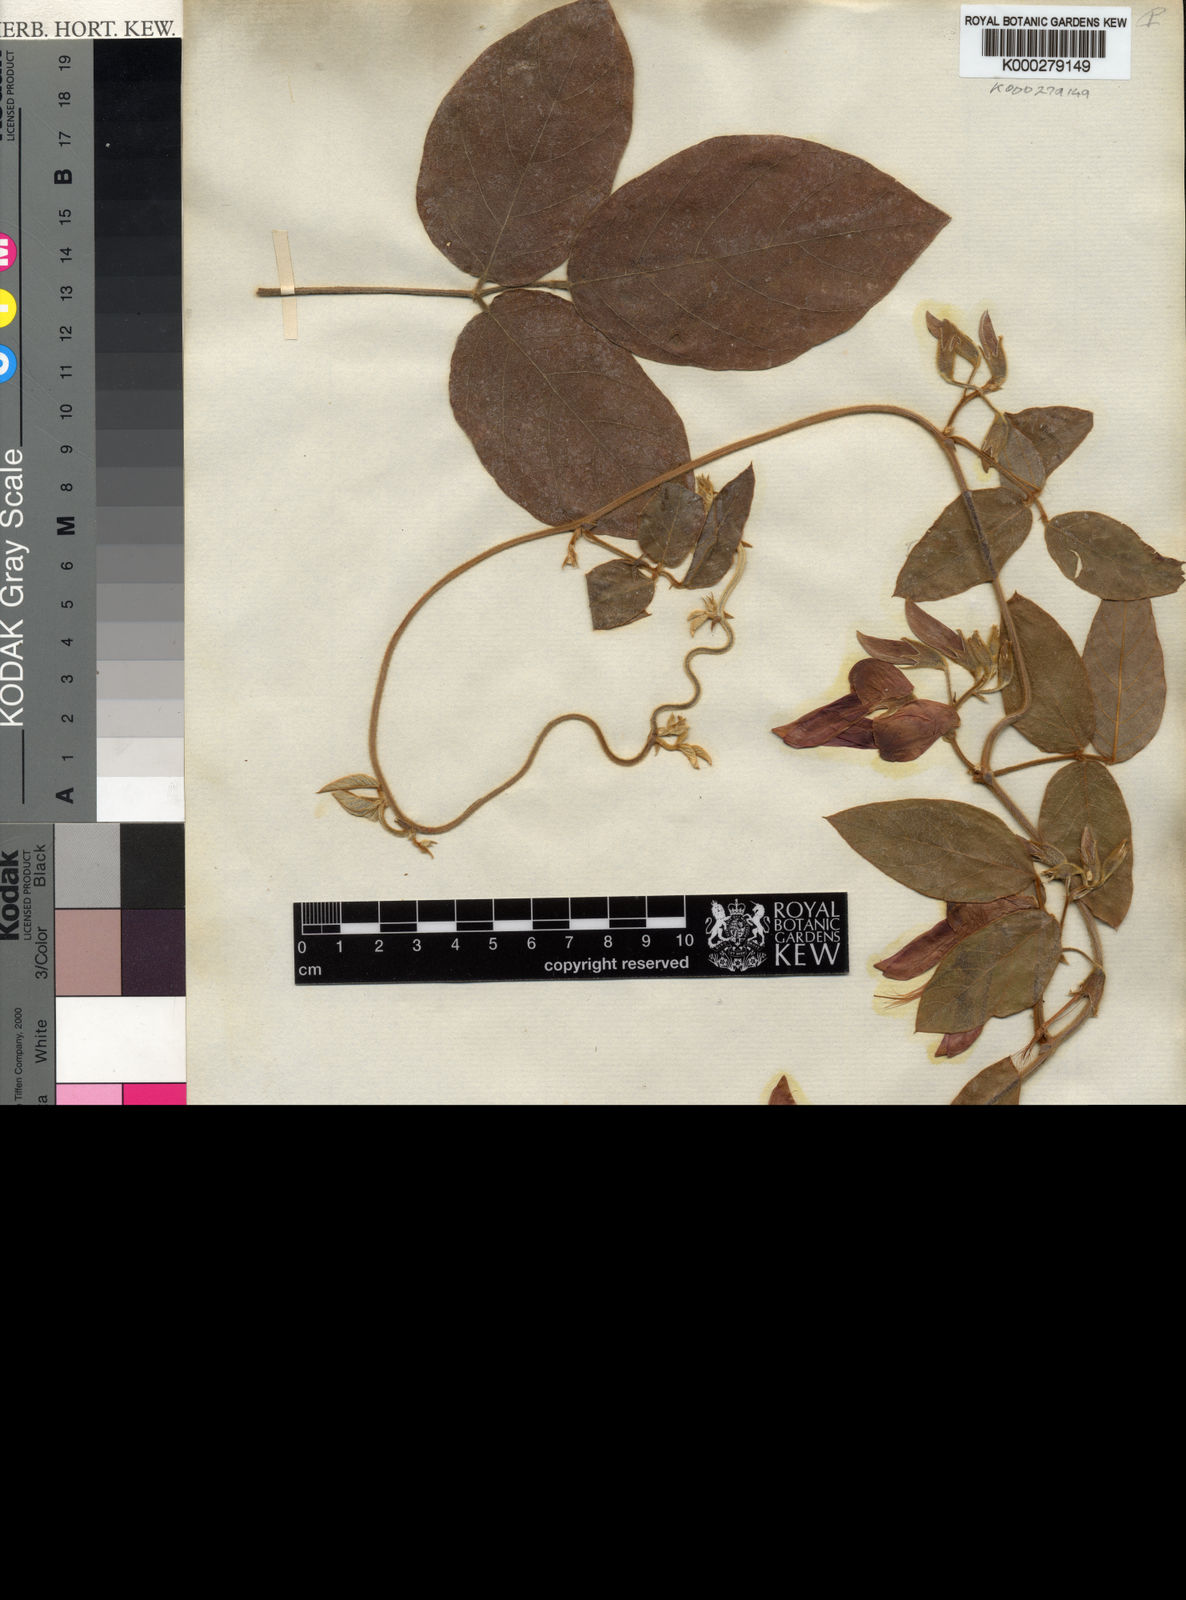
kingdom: Plantae
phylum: Tracheophyta
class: Magnoliopsida
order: Fabales
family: Fabaceae
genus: Kennedia
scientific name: Kennedia rubicunda
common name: Red kennedy-pea
